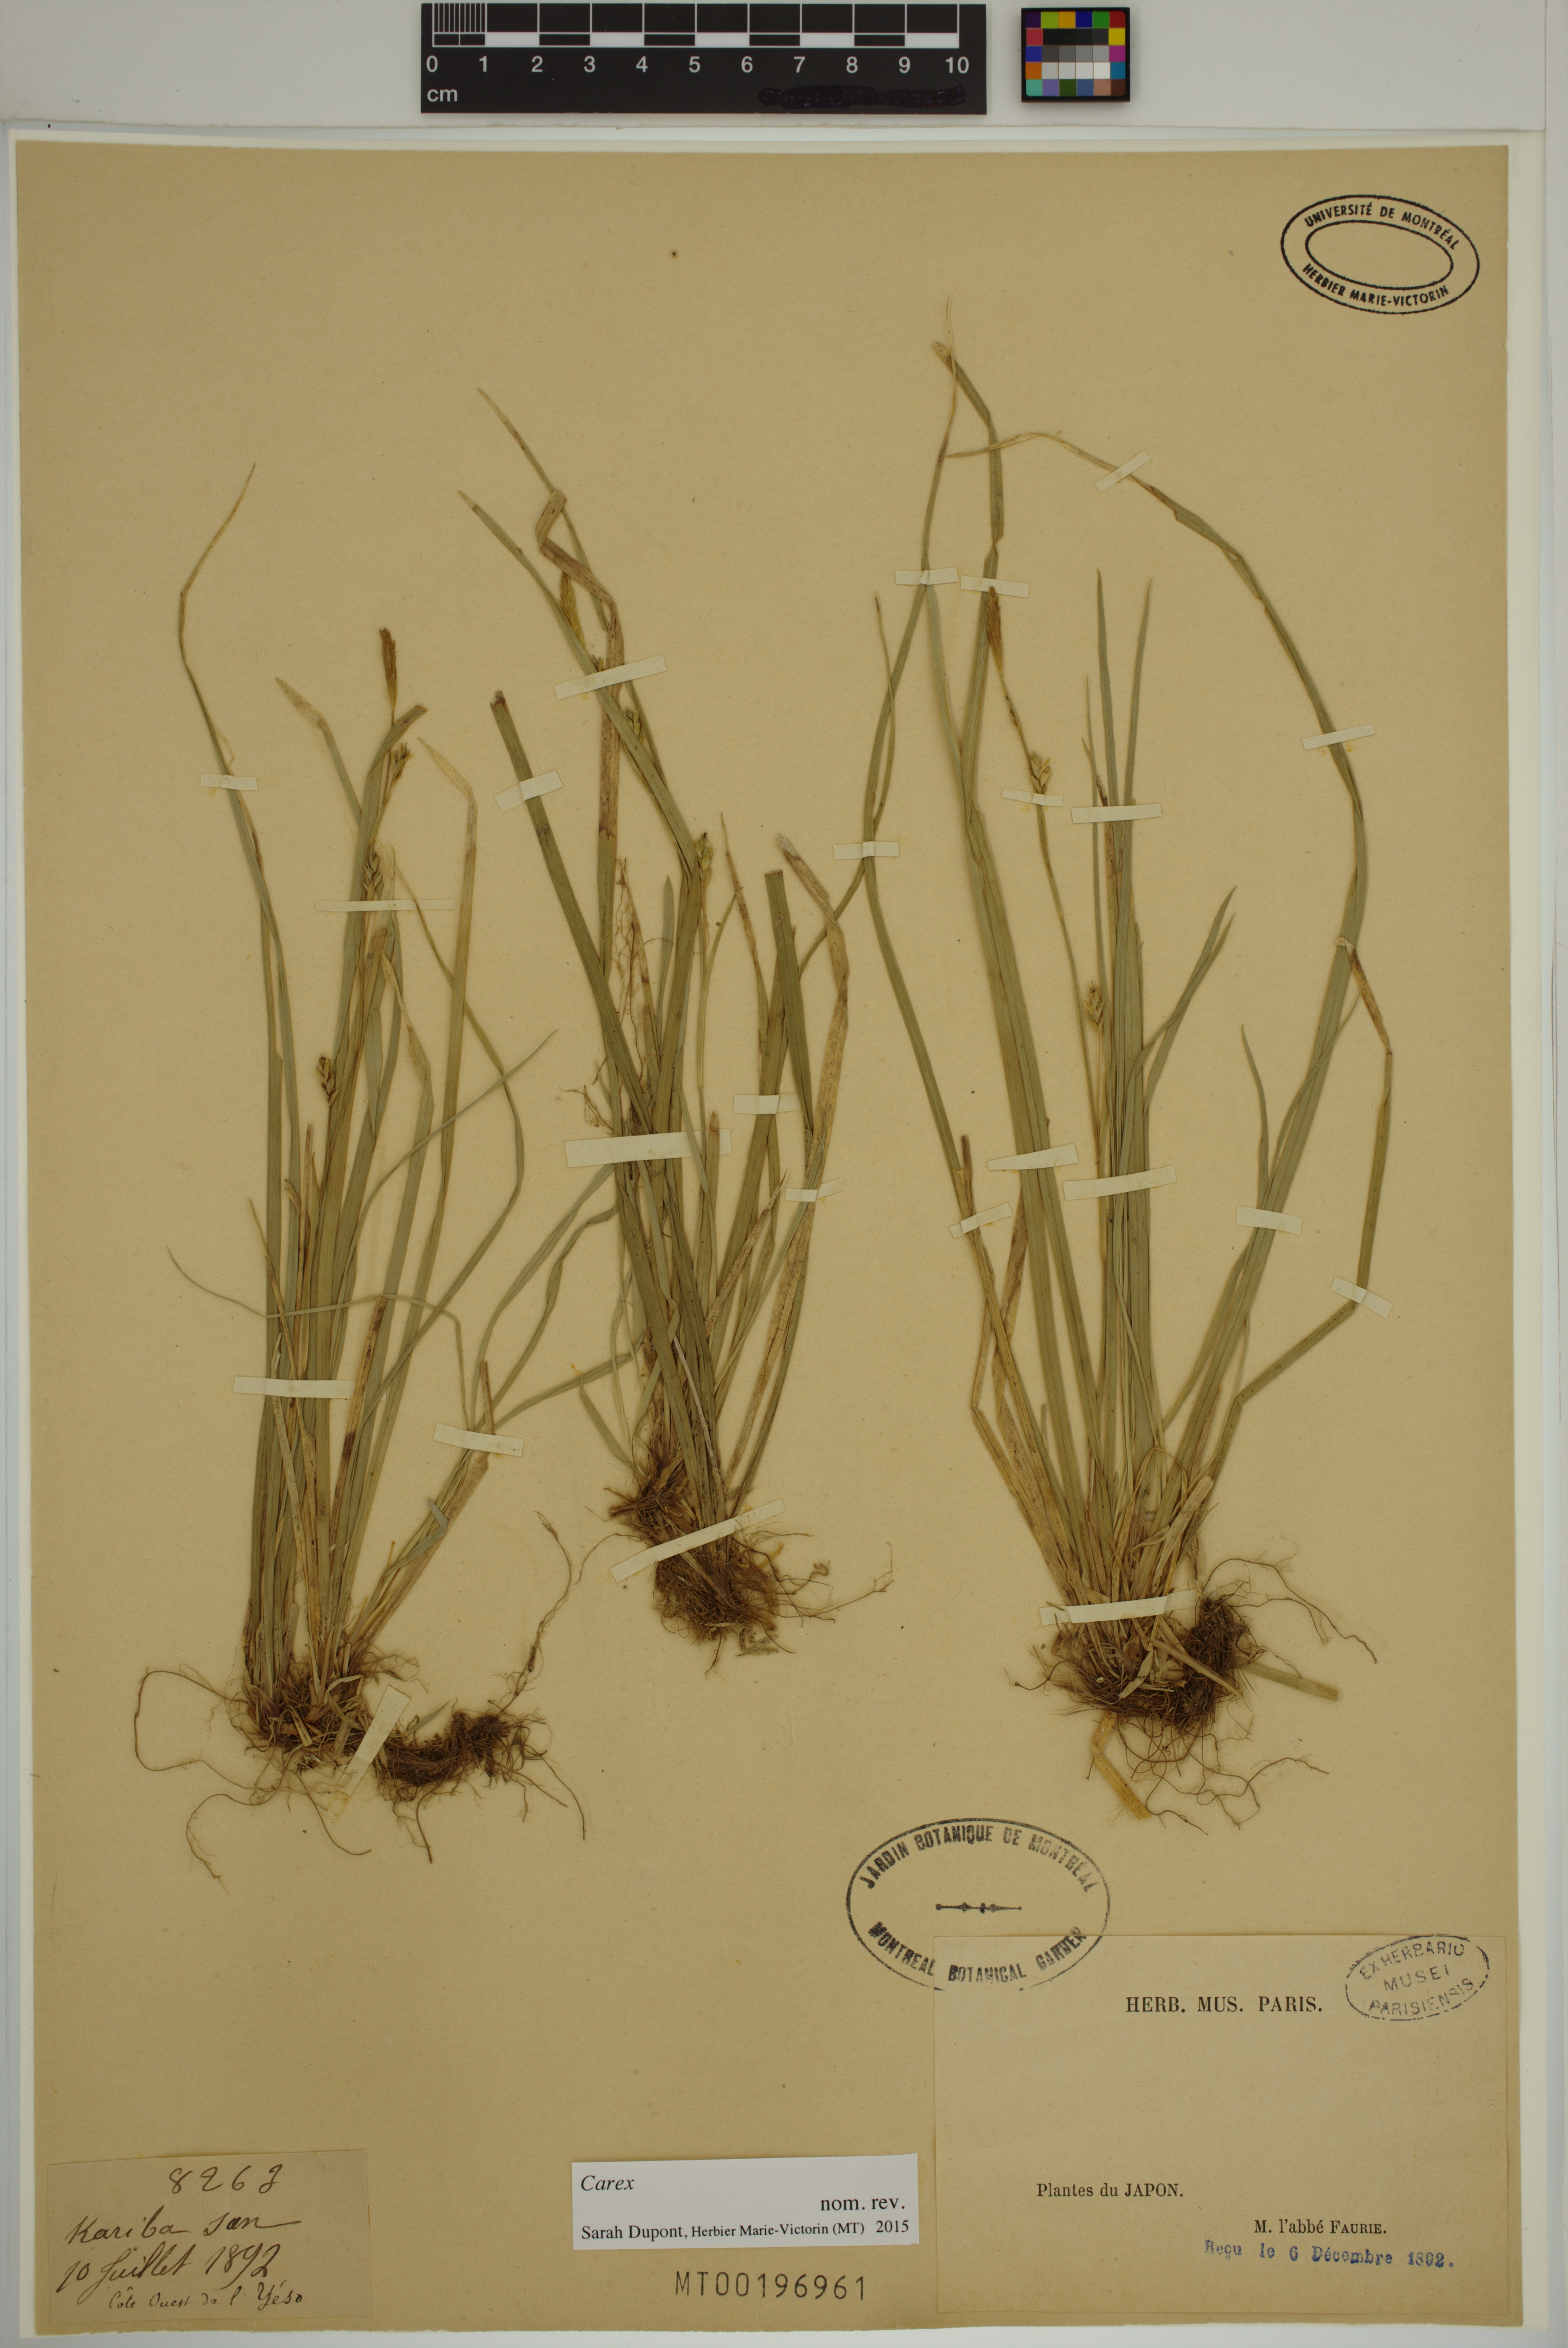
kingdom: Plantae
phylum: Tracheophyta
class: Liliopsida
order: Poales
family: Cyperaceae
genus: Carex
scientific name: Carex
